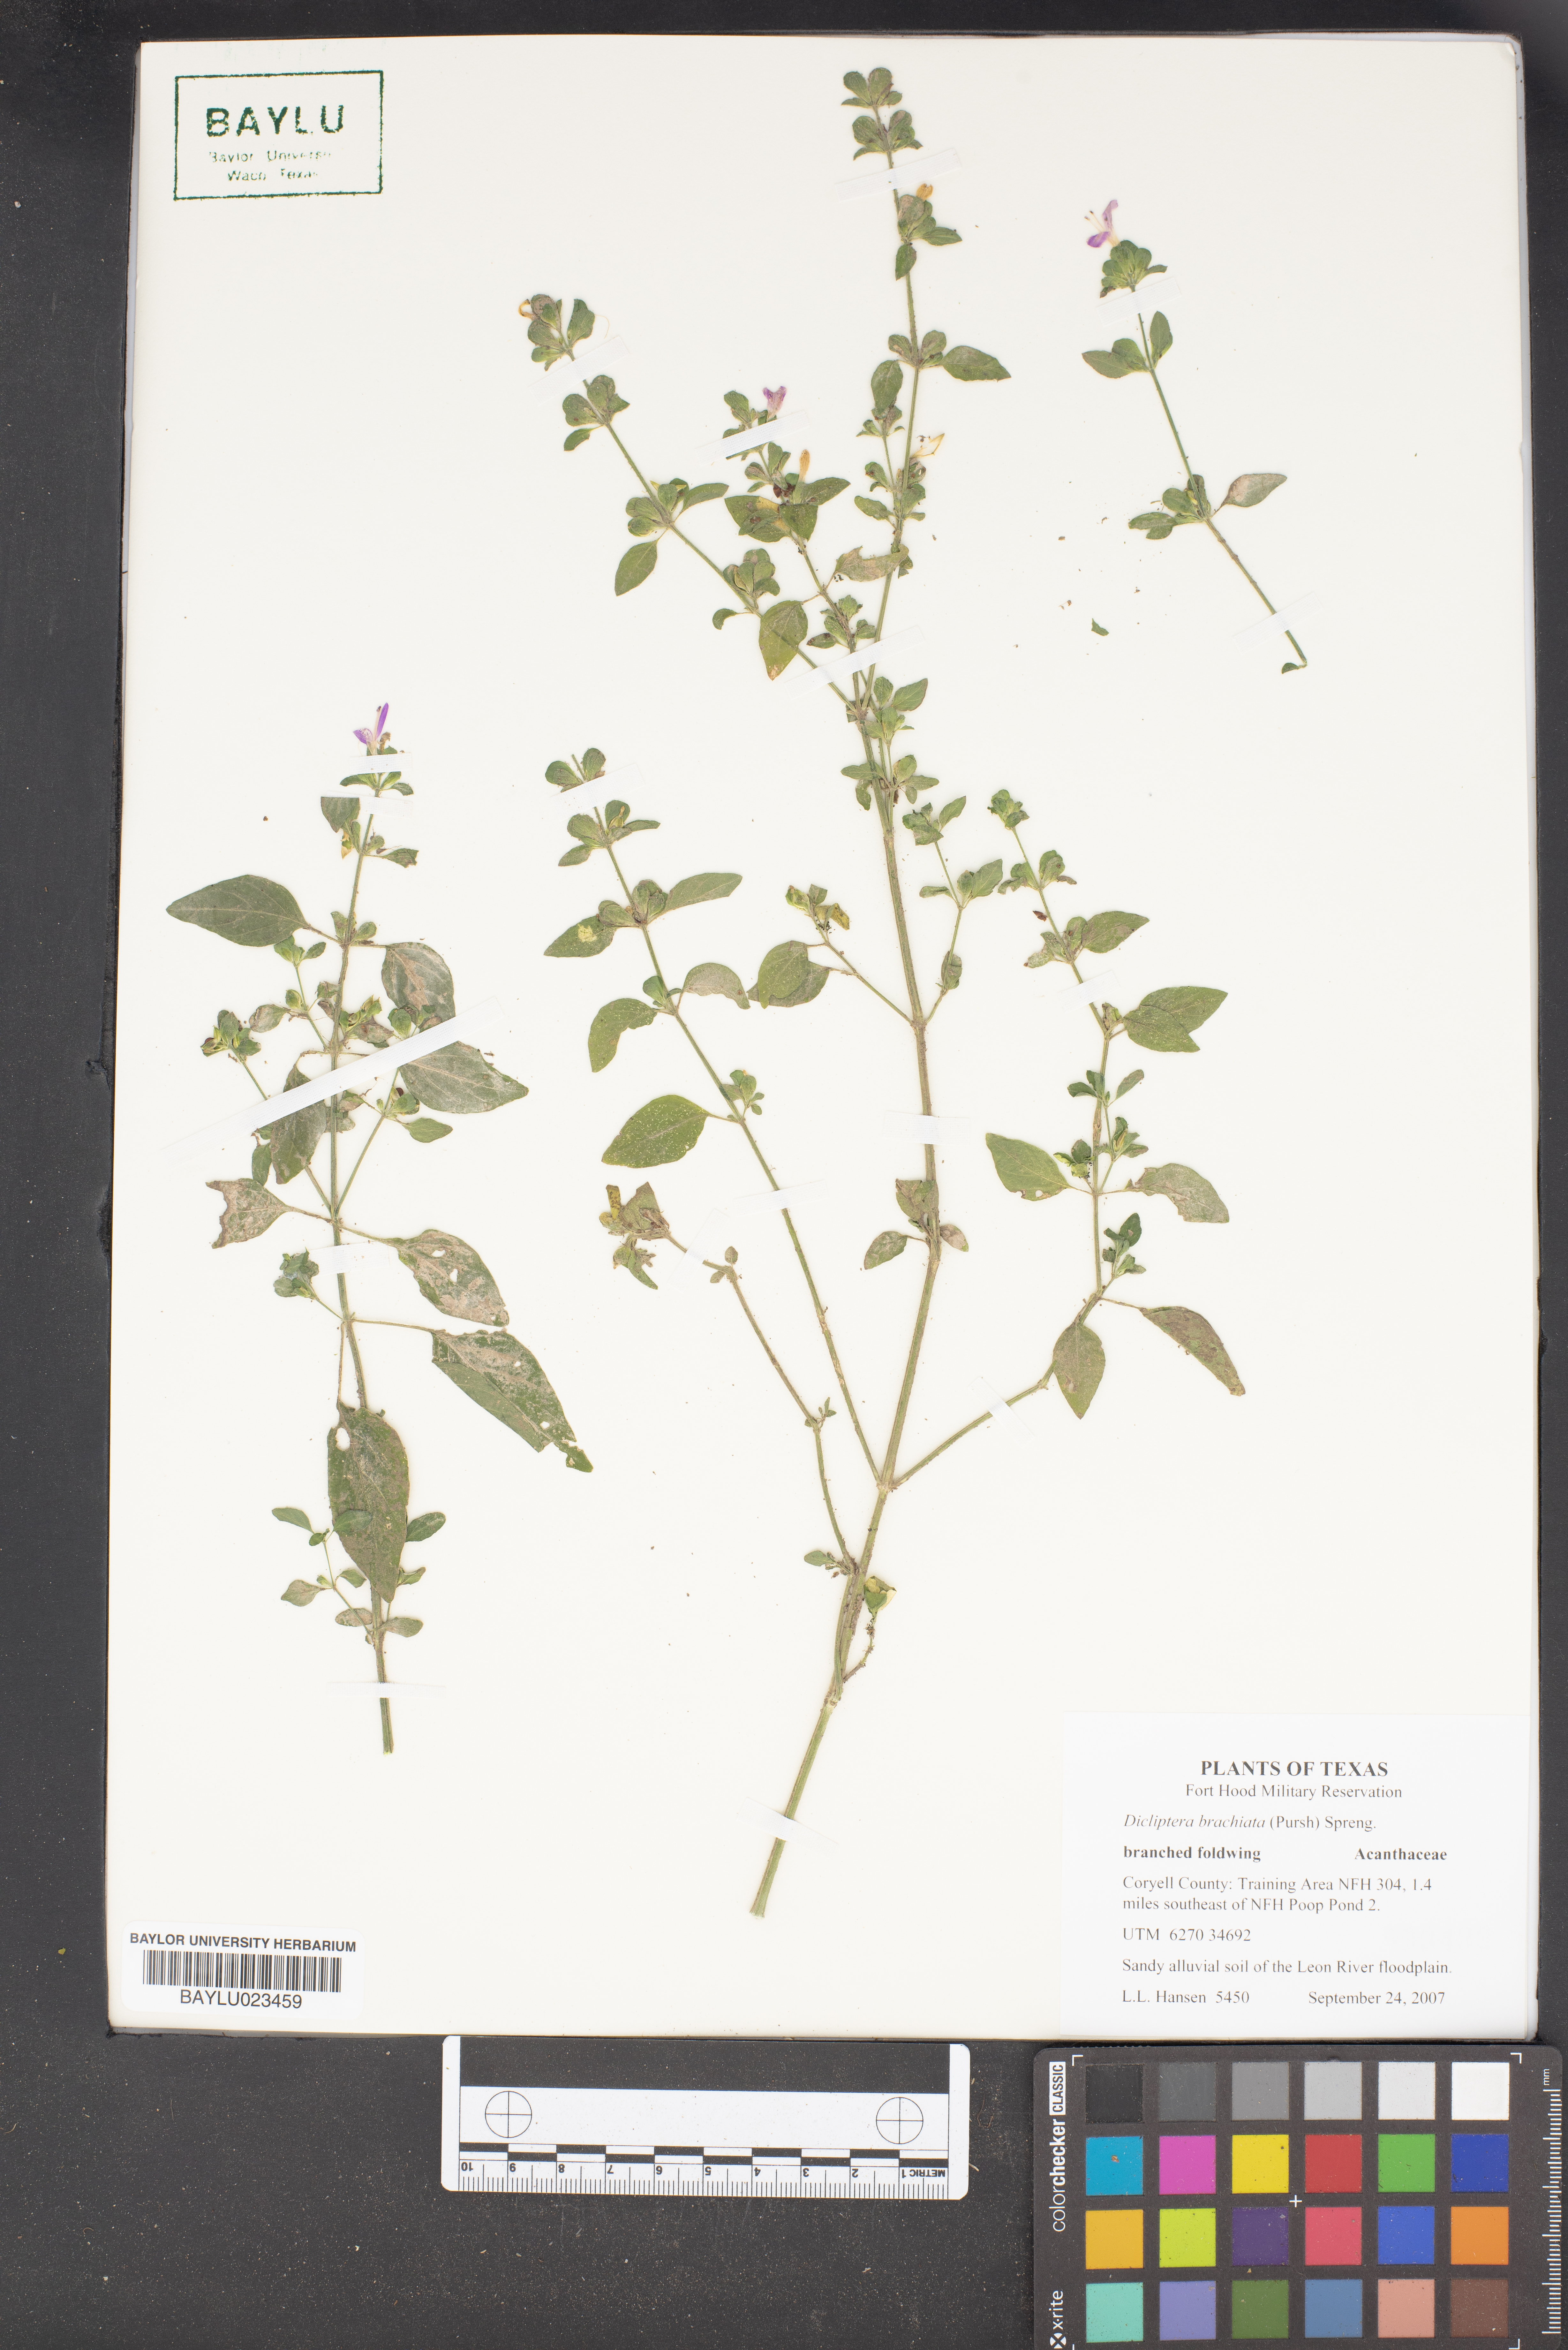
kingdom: Plantae
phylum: Tracheophyta
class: Magnoliopsida
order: Lamiales
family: Acanthaceae
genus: Dicliptera
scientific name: Dicliptera brachiata
